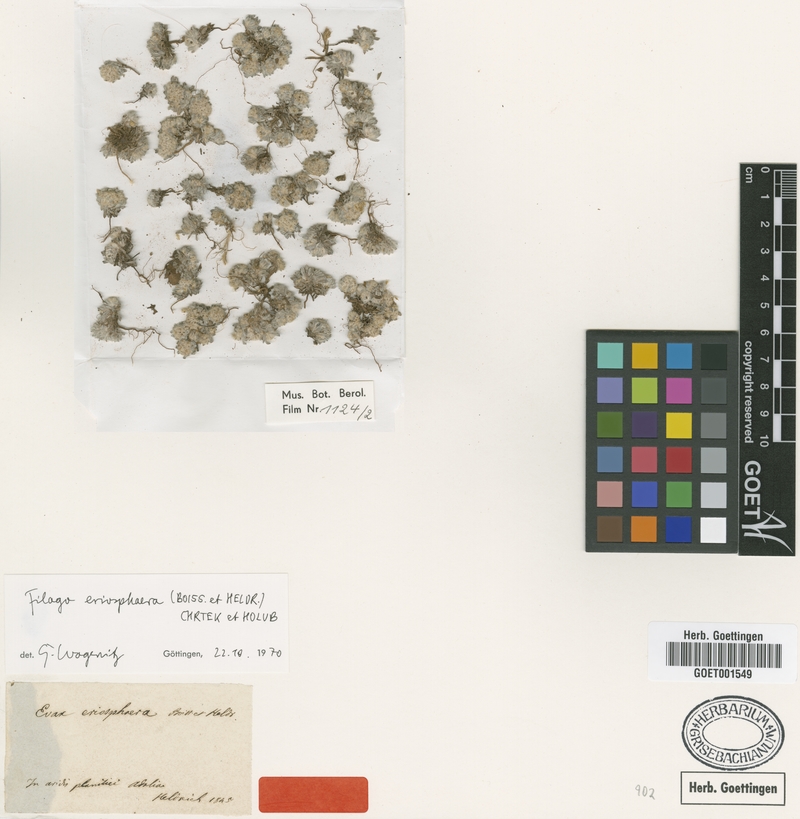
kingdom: Plantae
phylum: Tracheophyta
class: Magnoliopsida
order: Asterales
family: Asteraceae
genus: Filago
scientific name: Filago eriosphaera
